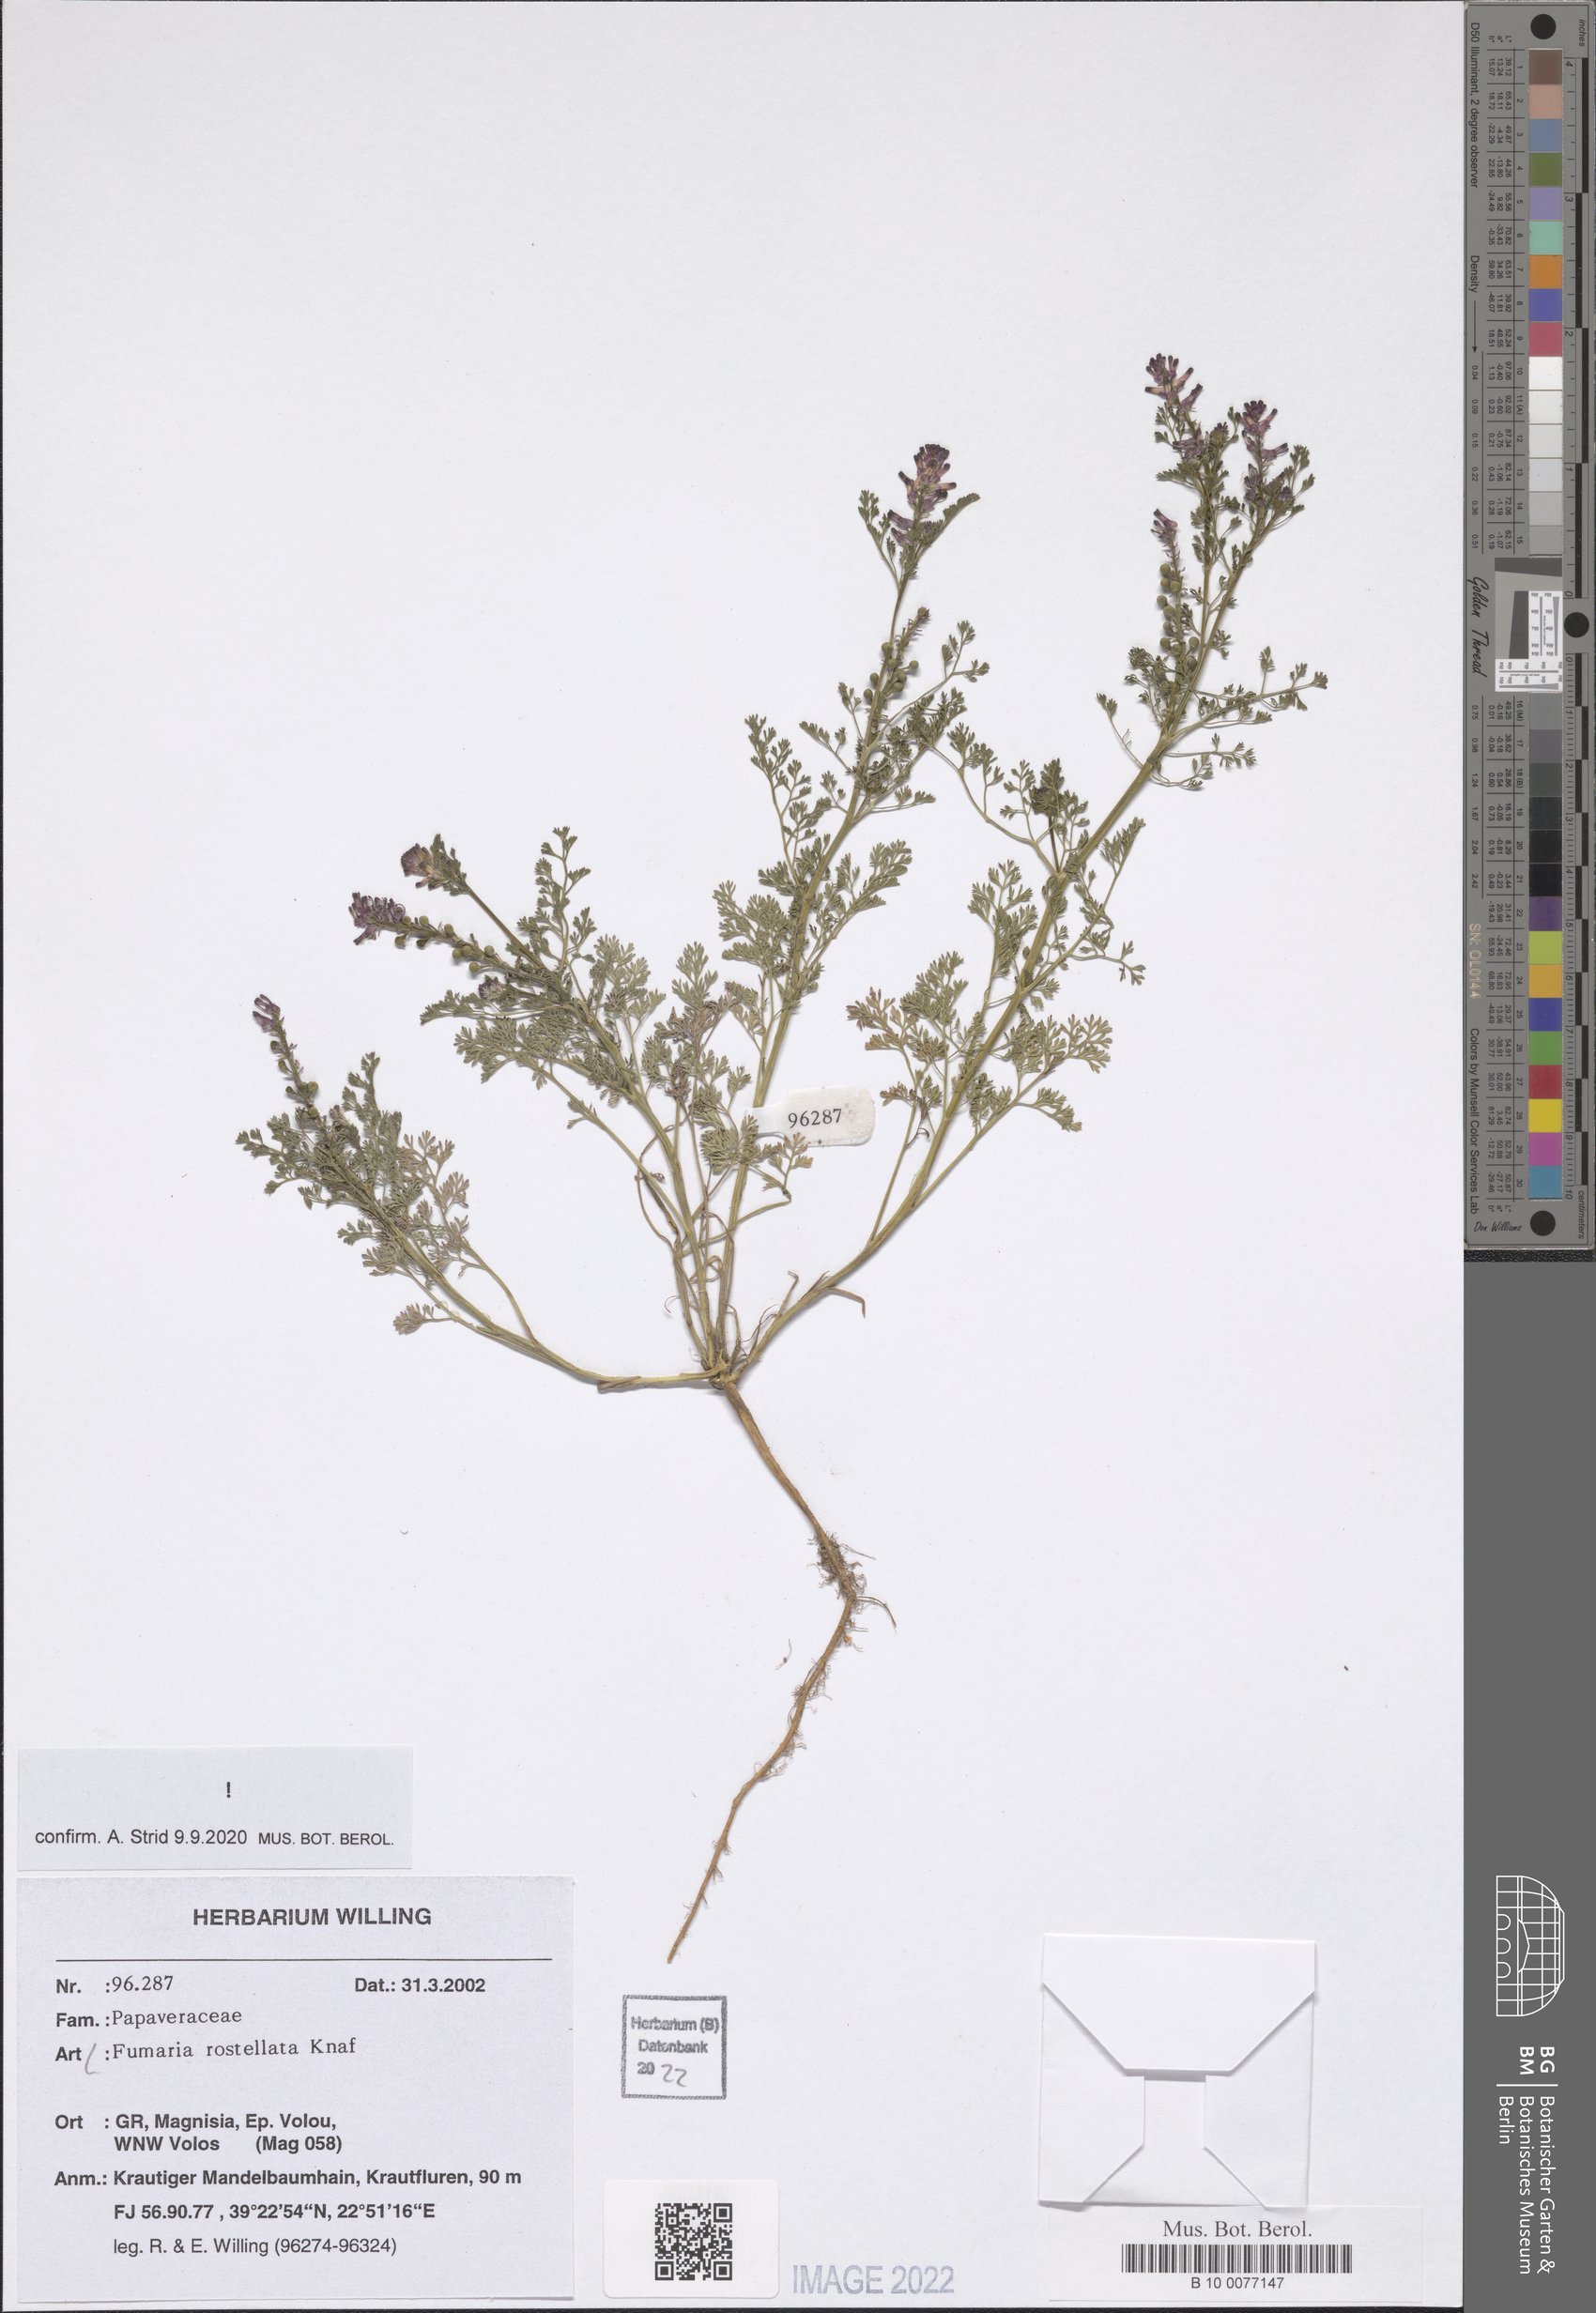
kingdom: Plantae
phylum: Tracheophyta
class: Magnoliopsida
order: Ranunculales
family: Papaveraceae
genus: Fumaria
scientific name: Fumaria rostellata
